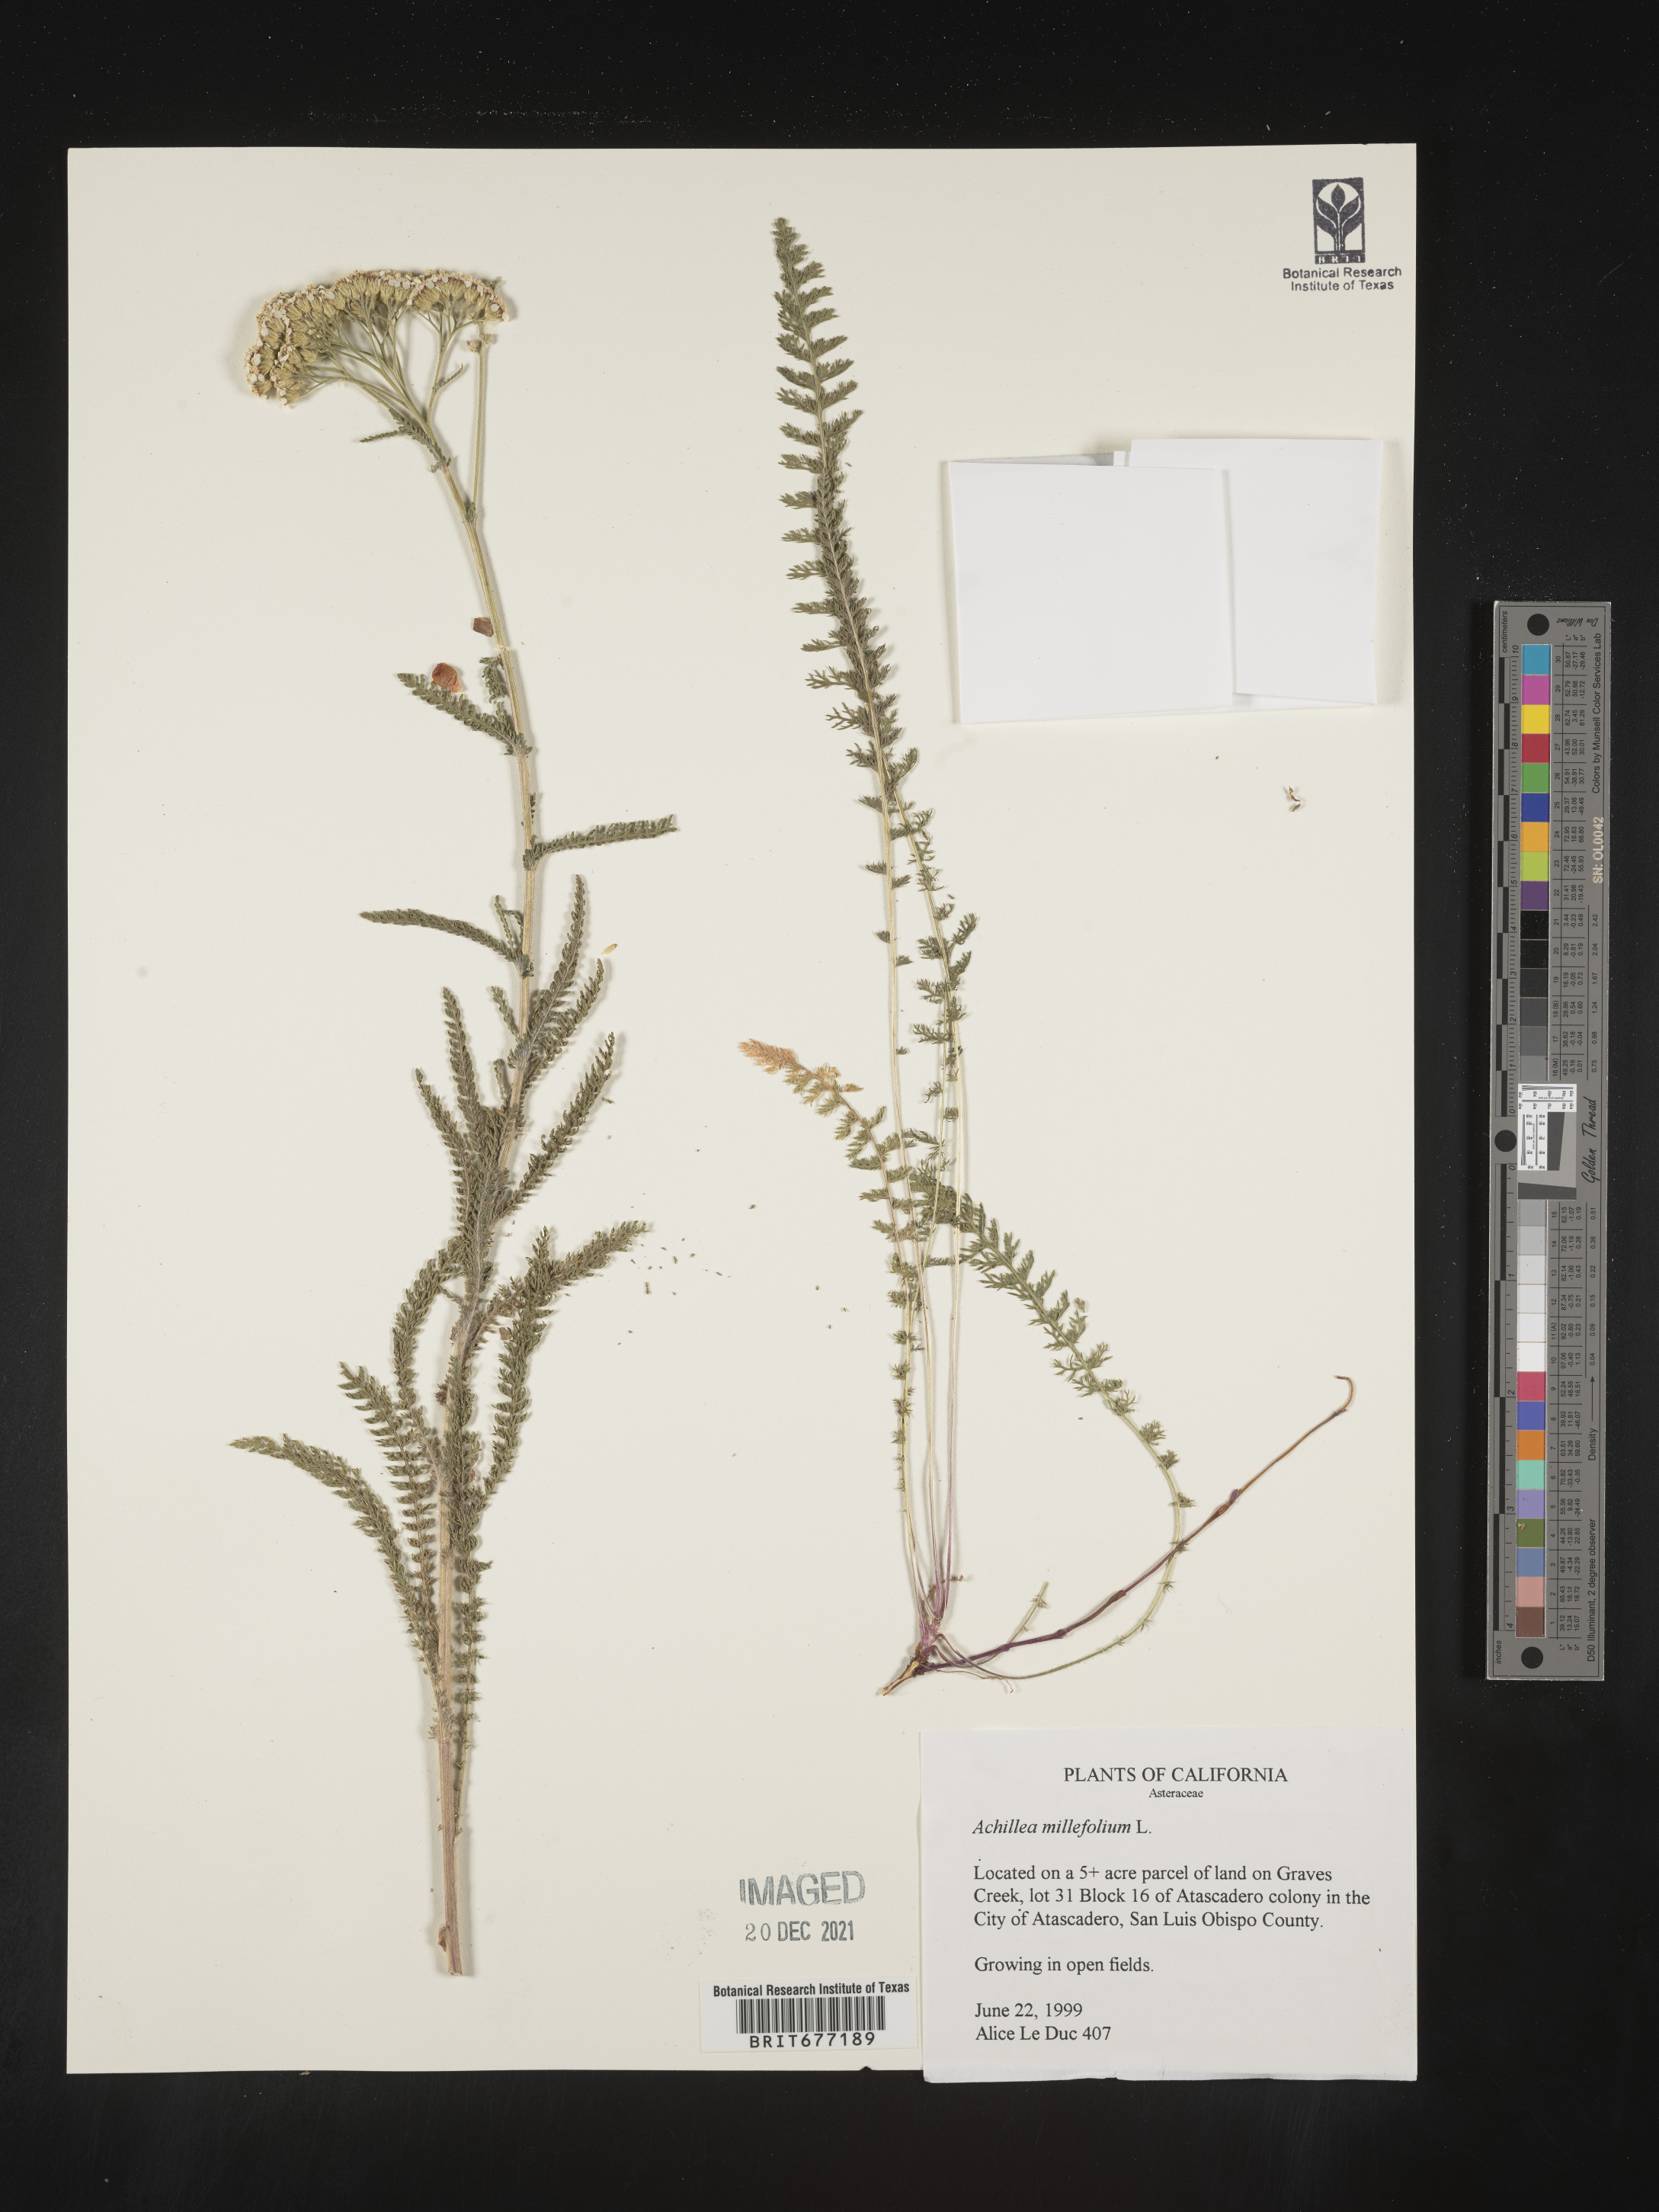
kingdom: Plantae
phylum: Tracheophyta
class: Magnoliopsida
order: Asterales
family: Asteraceae
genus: Achillea
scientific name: Achillea millefolium
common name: Yarrow
